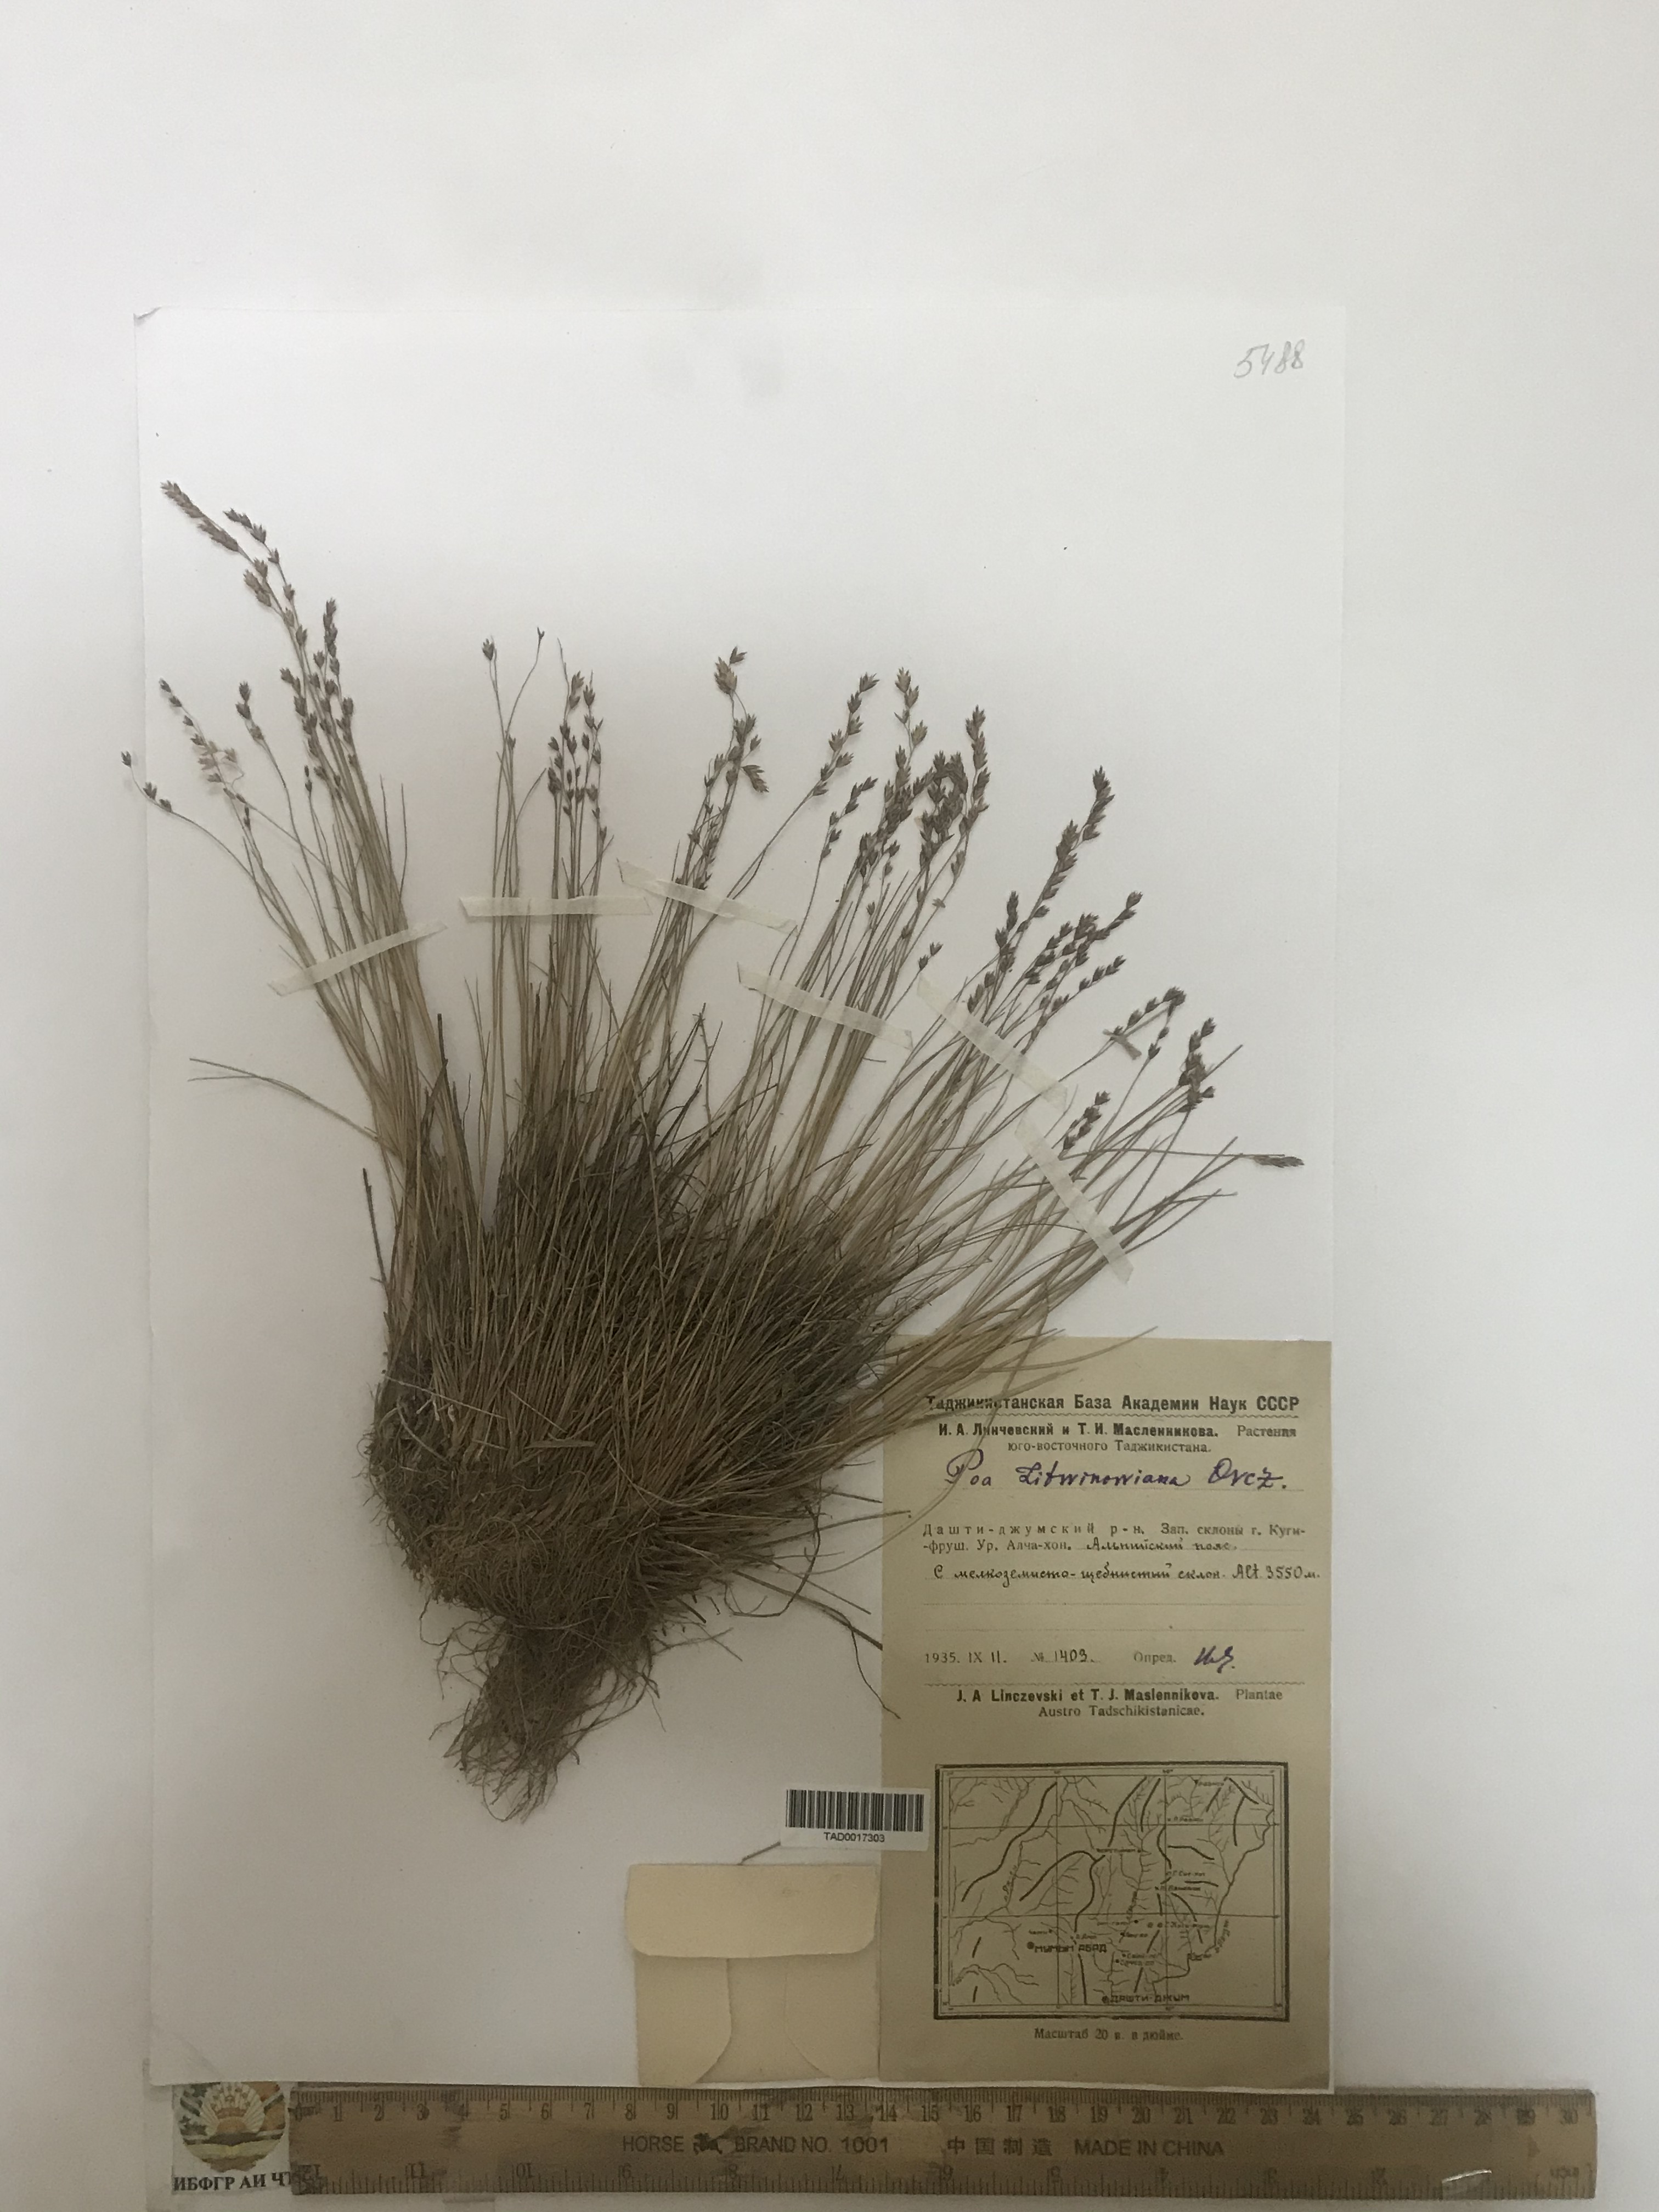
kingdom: Plantae
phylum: Tracheophyta
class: Liliopsida
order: Poales
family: Poaceae
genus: Poa
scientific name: Poa glauca
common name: Glaucous bluegrass
